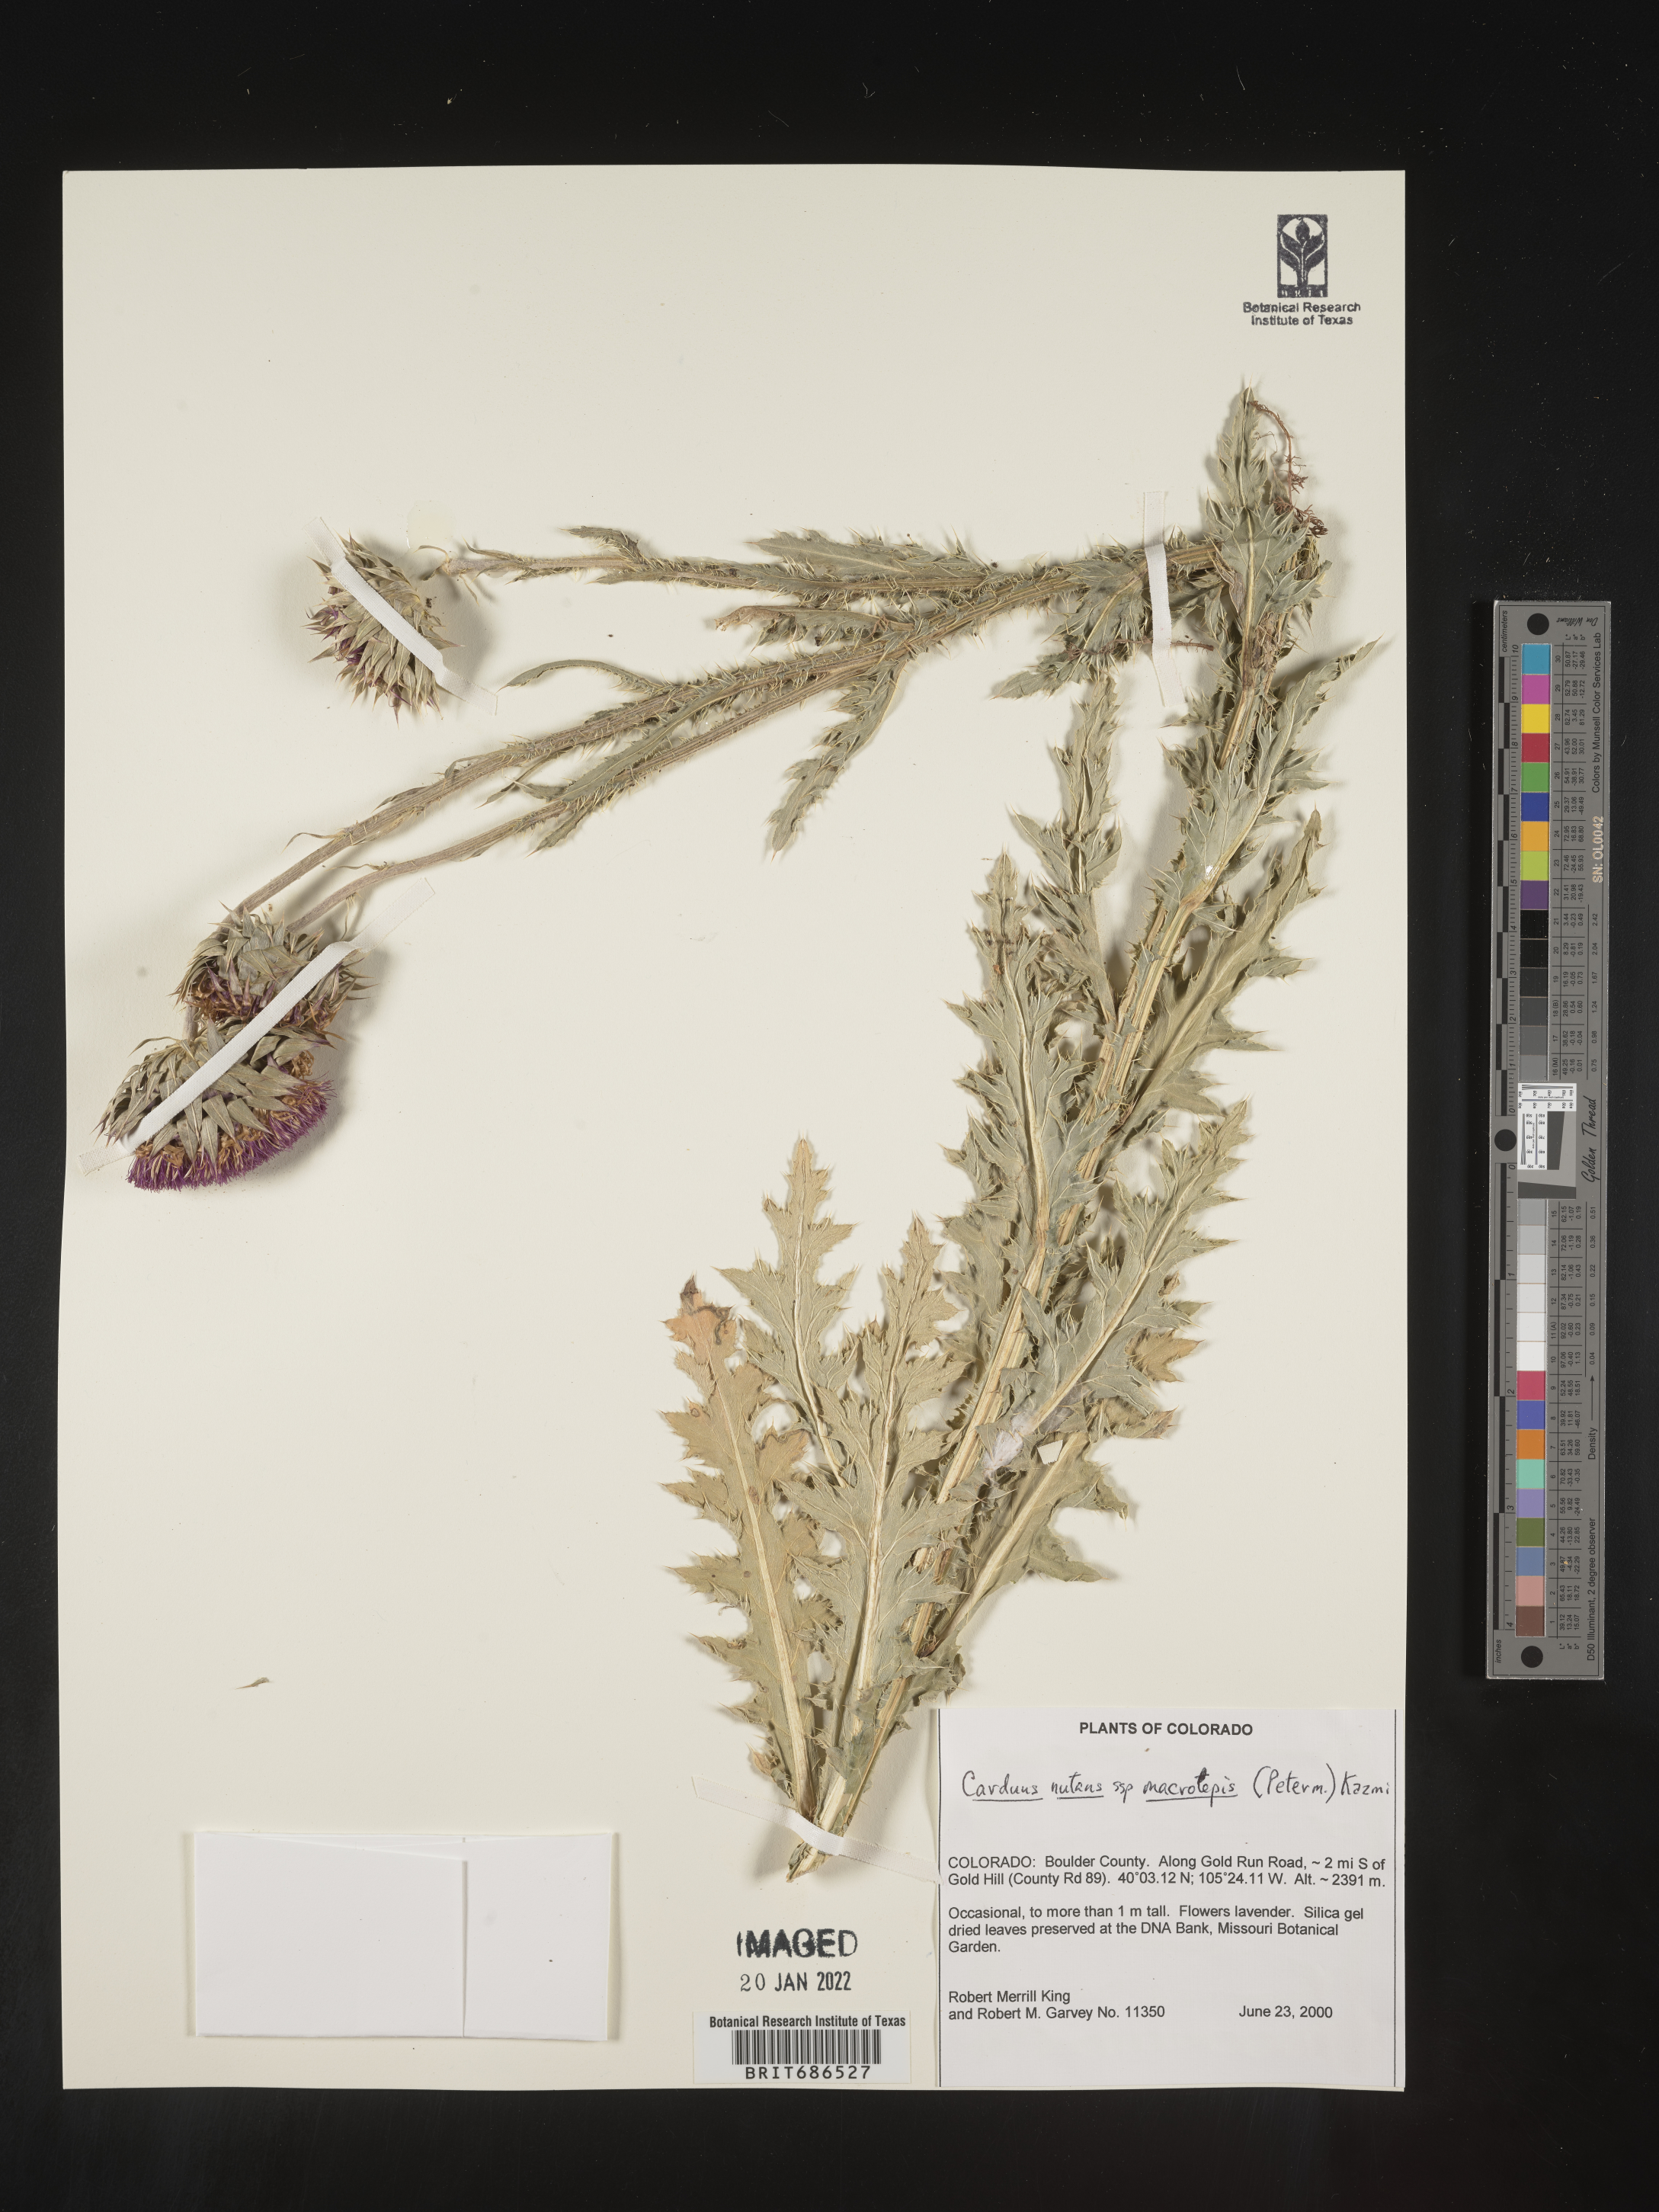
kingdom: Plantae
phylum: Tracheophyta
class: Magnoliopsida
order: Asterales
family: Asteraceae
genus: Carduus
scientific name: Carduus nutans
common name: Musk thistle
